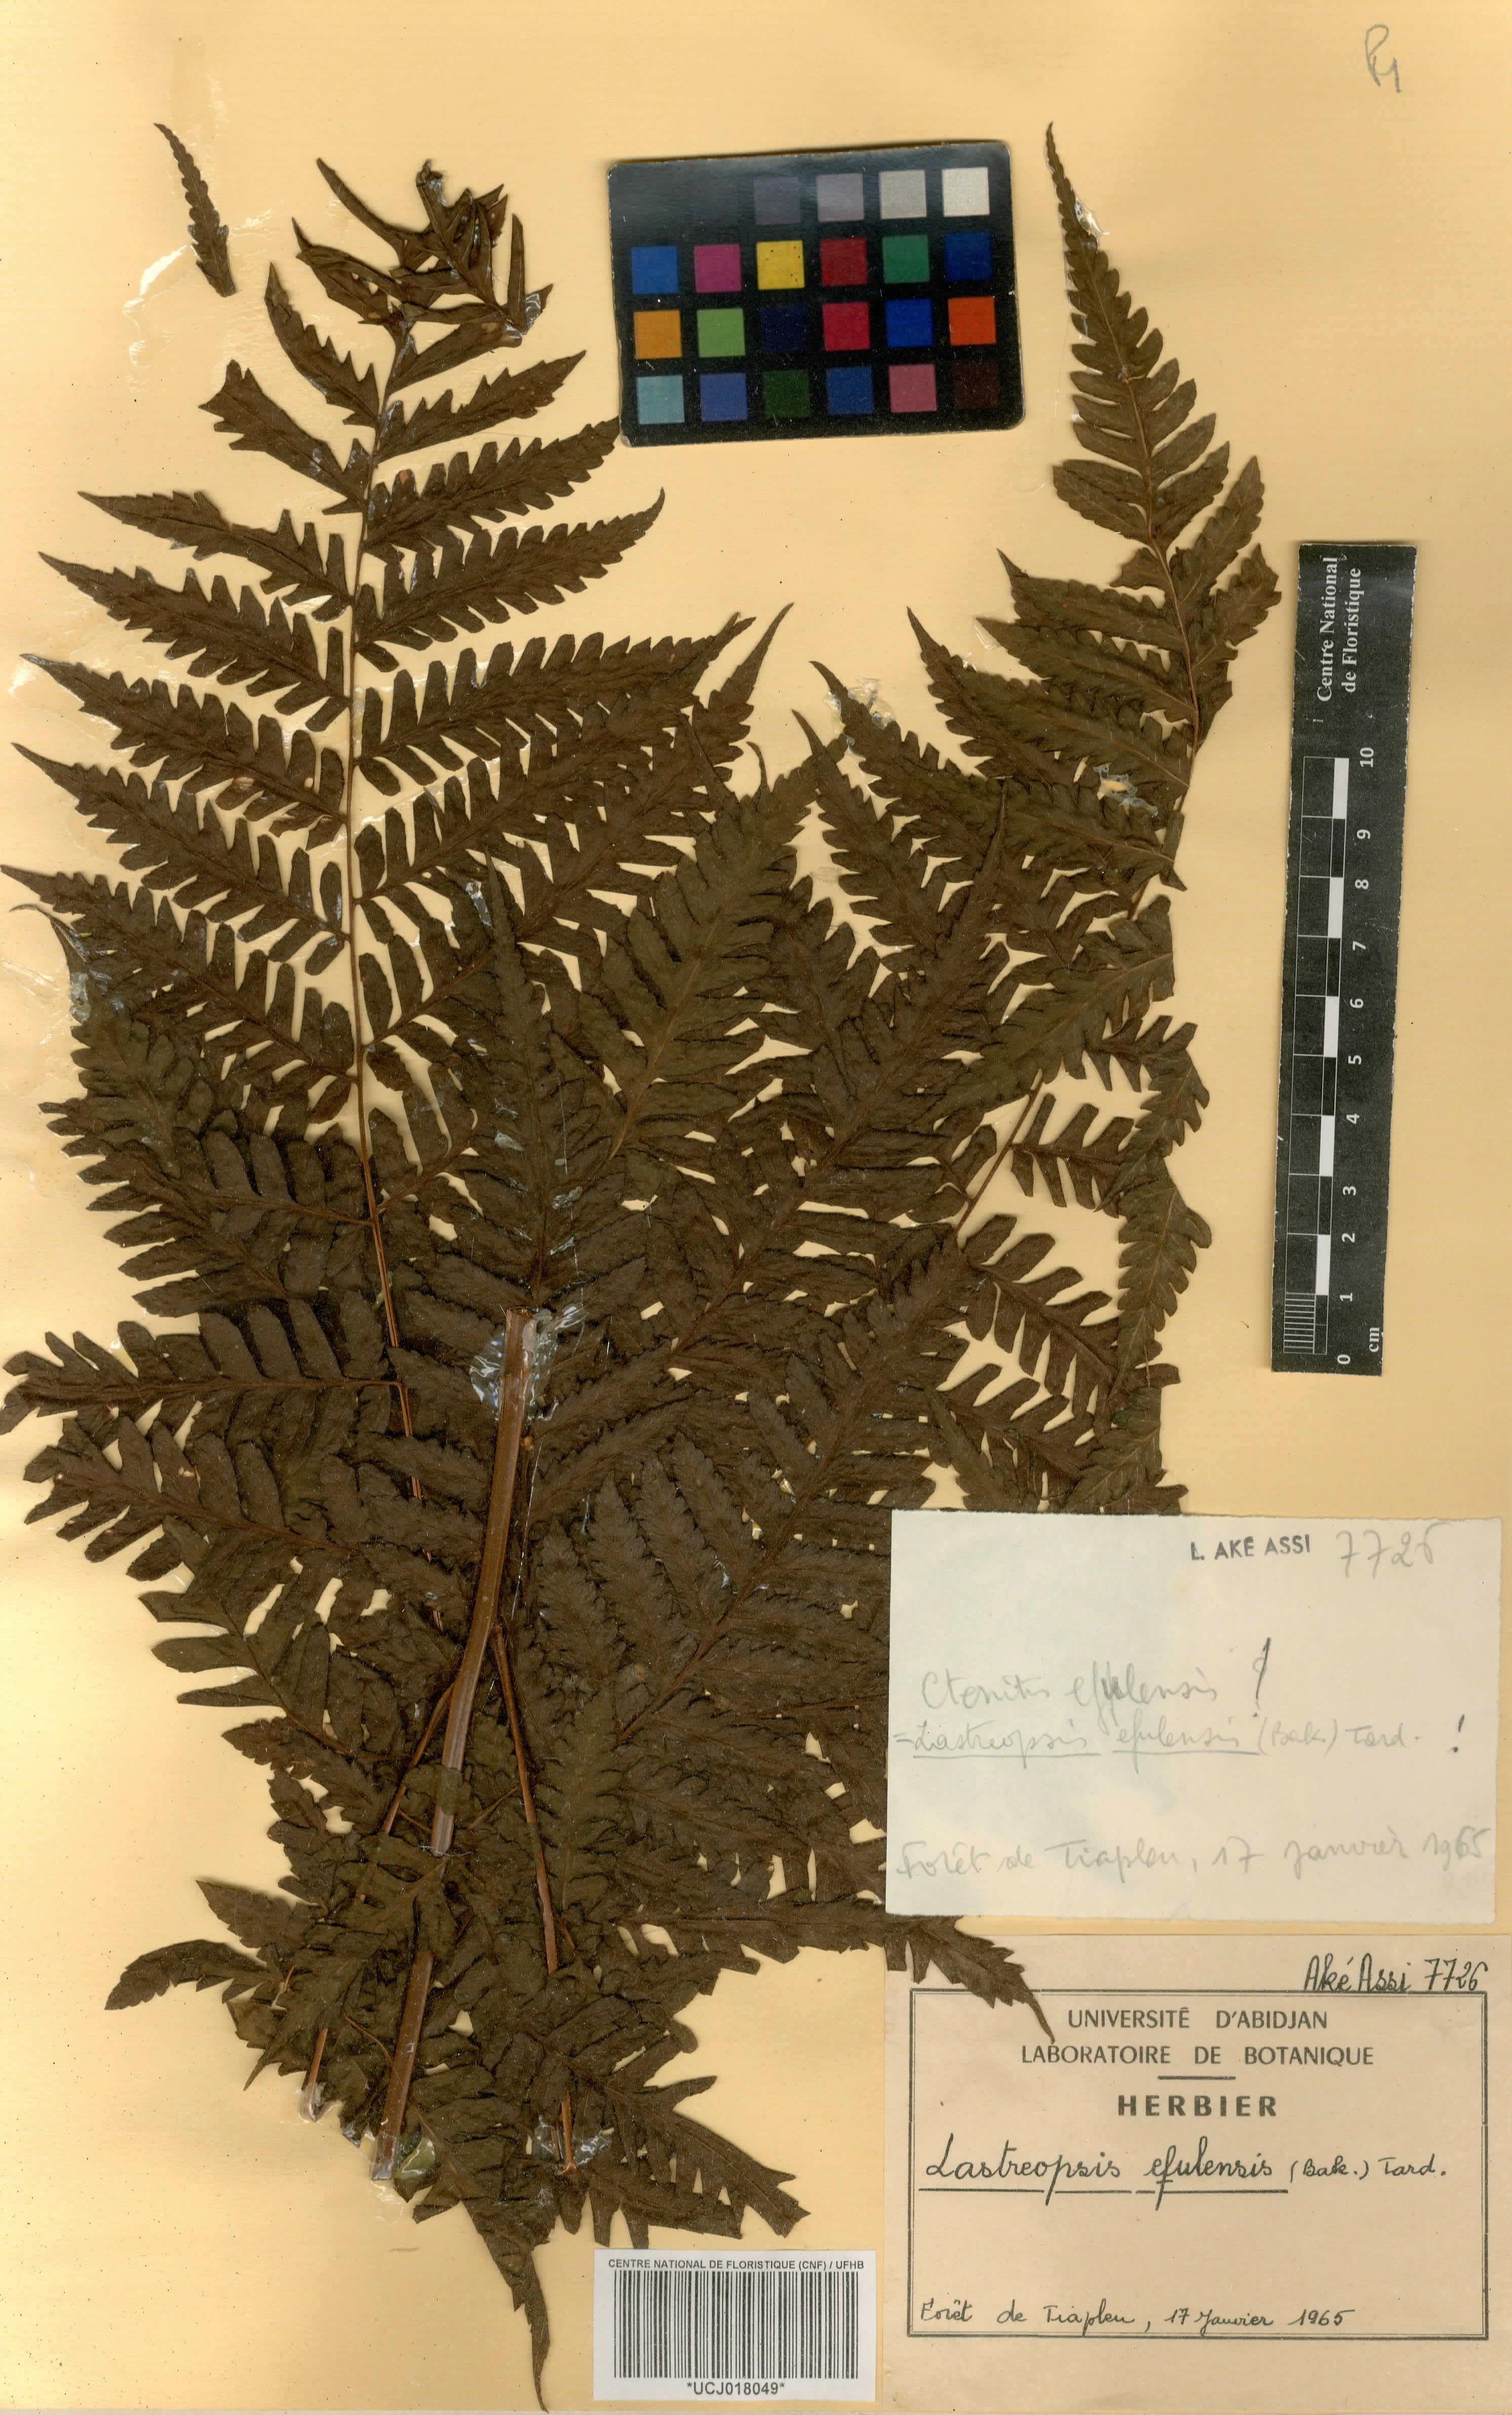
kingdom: Plantae
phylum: Tracheophyta
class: Polypodiopsida
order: Polypodiales
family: Dryopteridaceae
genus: Parapolystichum
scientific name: Parapolystichum currorii
